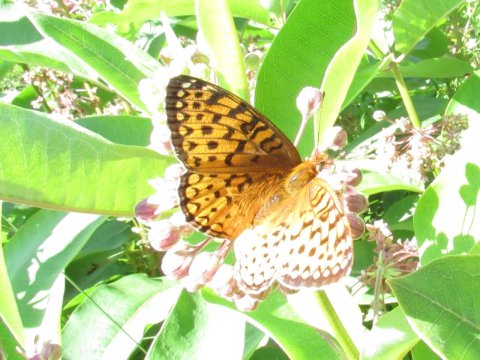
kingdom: Animalia
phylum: Arthropoda
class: Insecta
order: Lepidoptera
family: Nymphalidae
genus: Speyeria
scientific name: Speyeria atlantis
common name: Atlantis Fritillary
